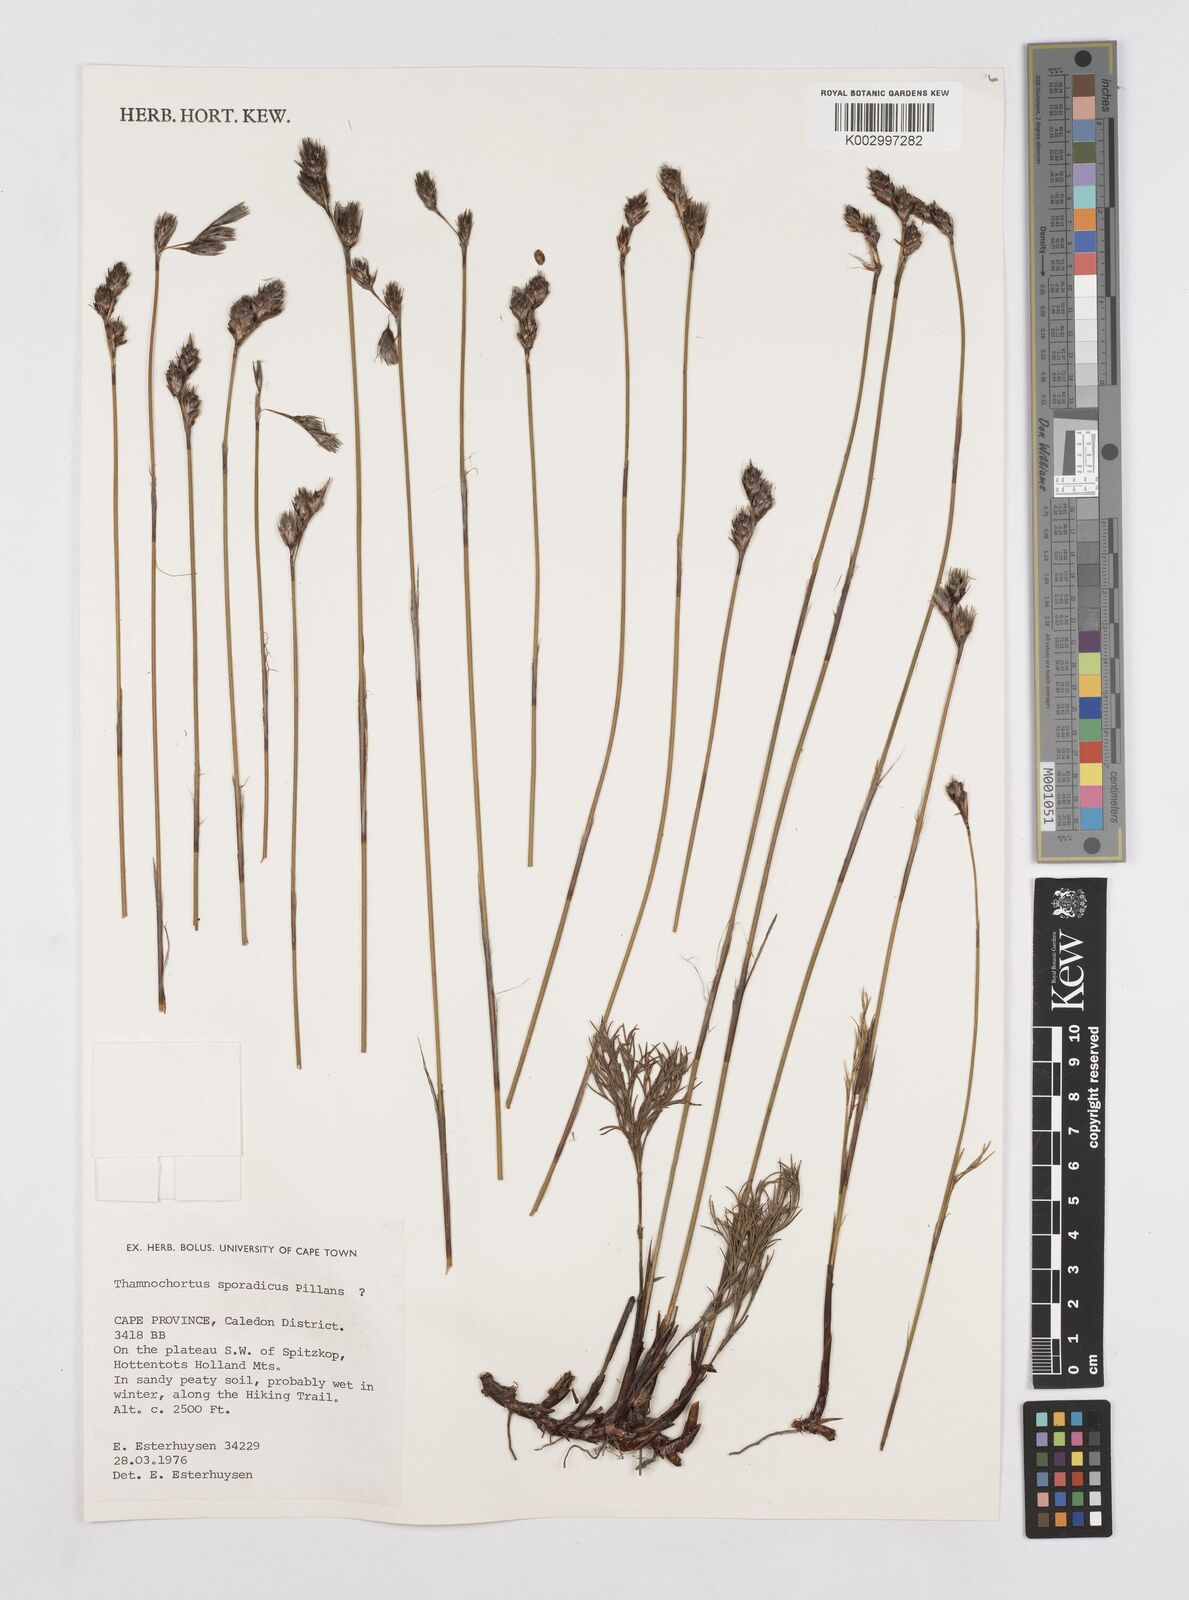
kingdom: Plantae
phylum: Tracheophyta
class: Liliopsida
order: Poales
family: Restionaceae
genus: Thamnochortus
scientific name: Thamnochortus sporadicus
